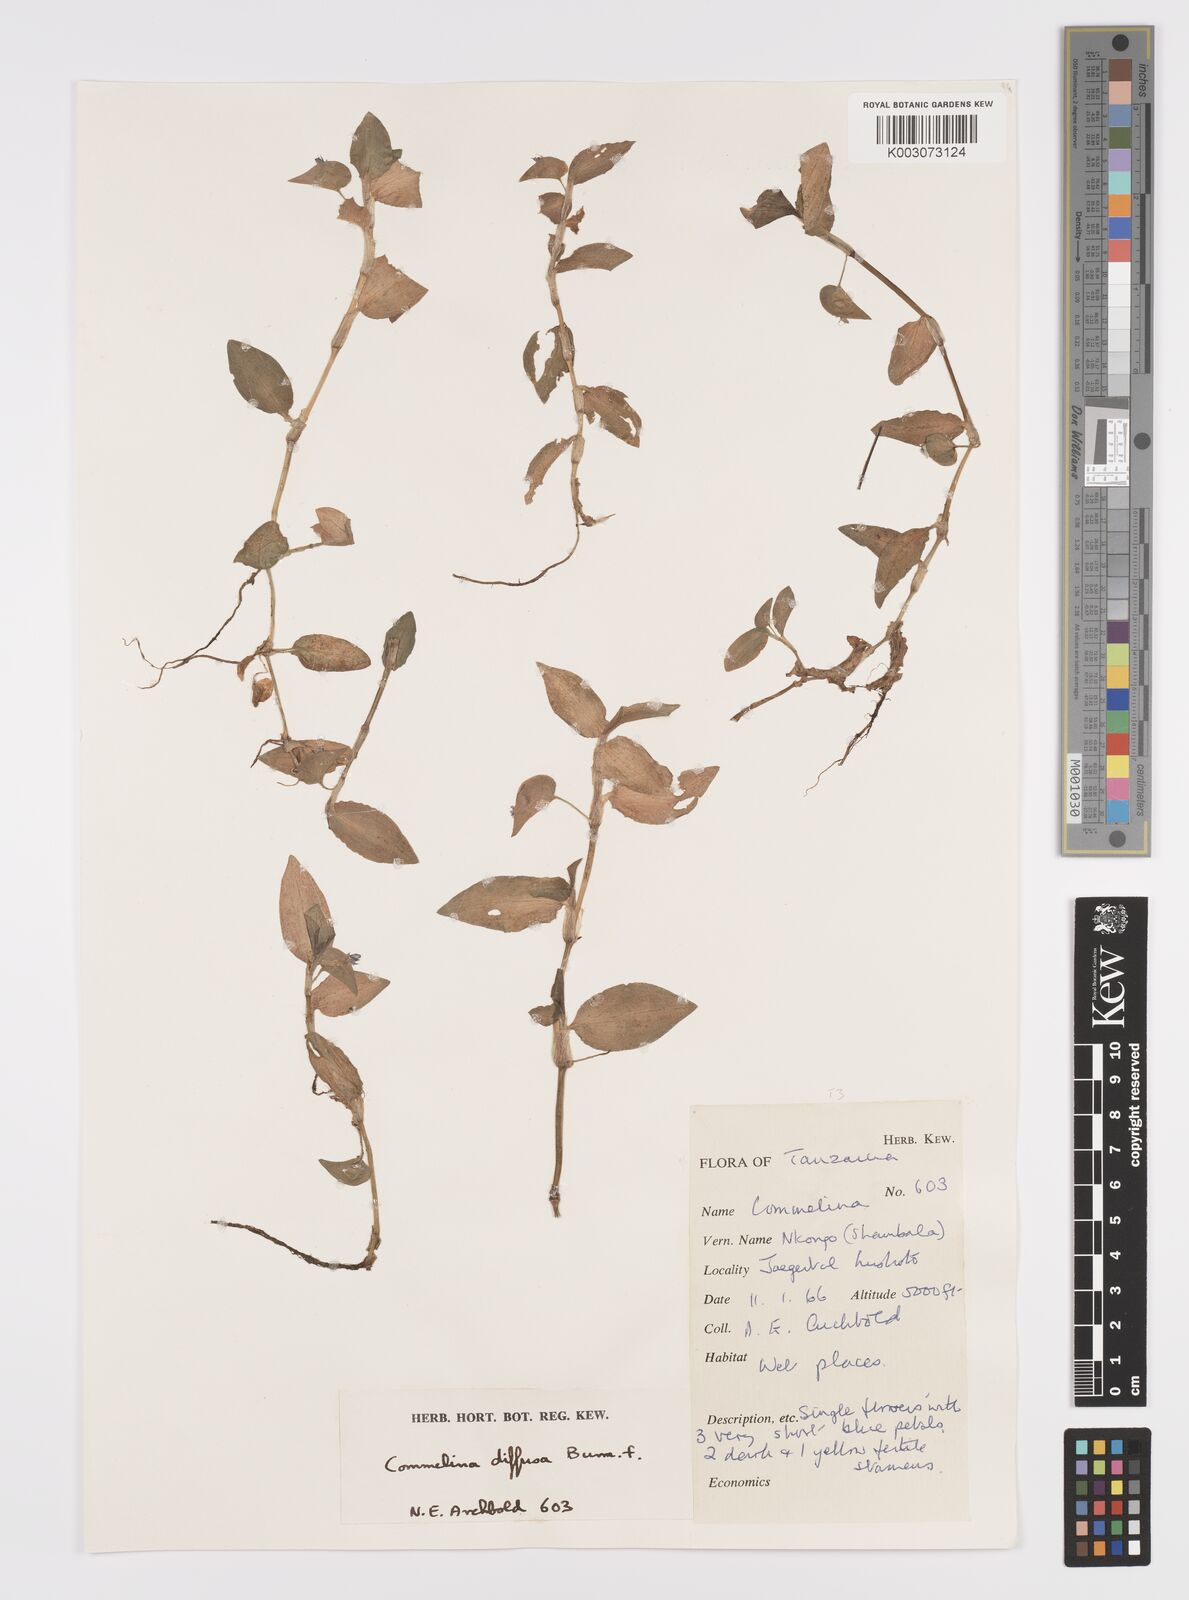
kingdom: Plantae
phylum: Tracheophyta
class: Liliopsida
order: Commelinales
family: Commelinaceae
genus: Commelina
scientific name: Commelina diffusa
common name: Climbing dayflower
